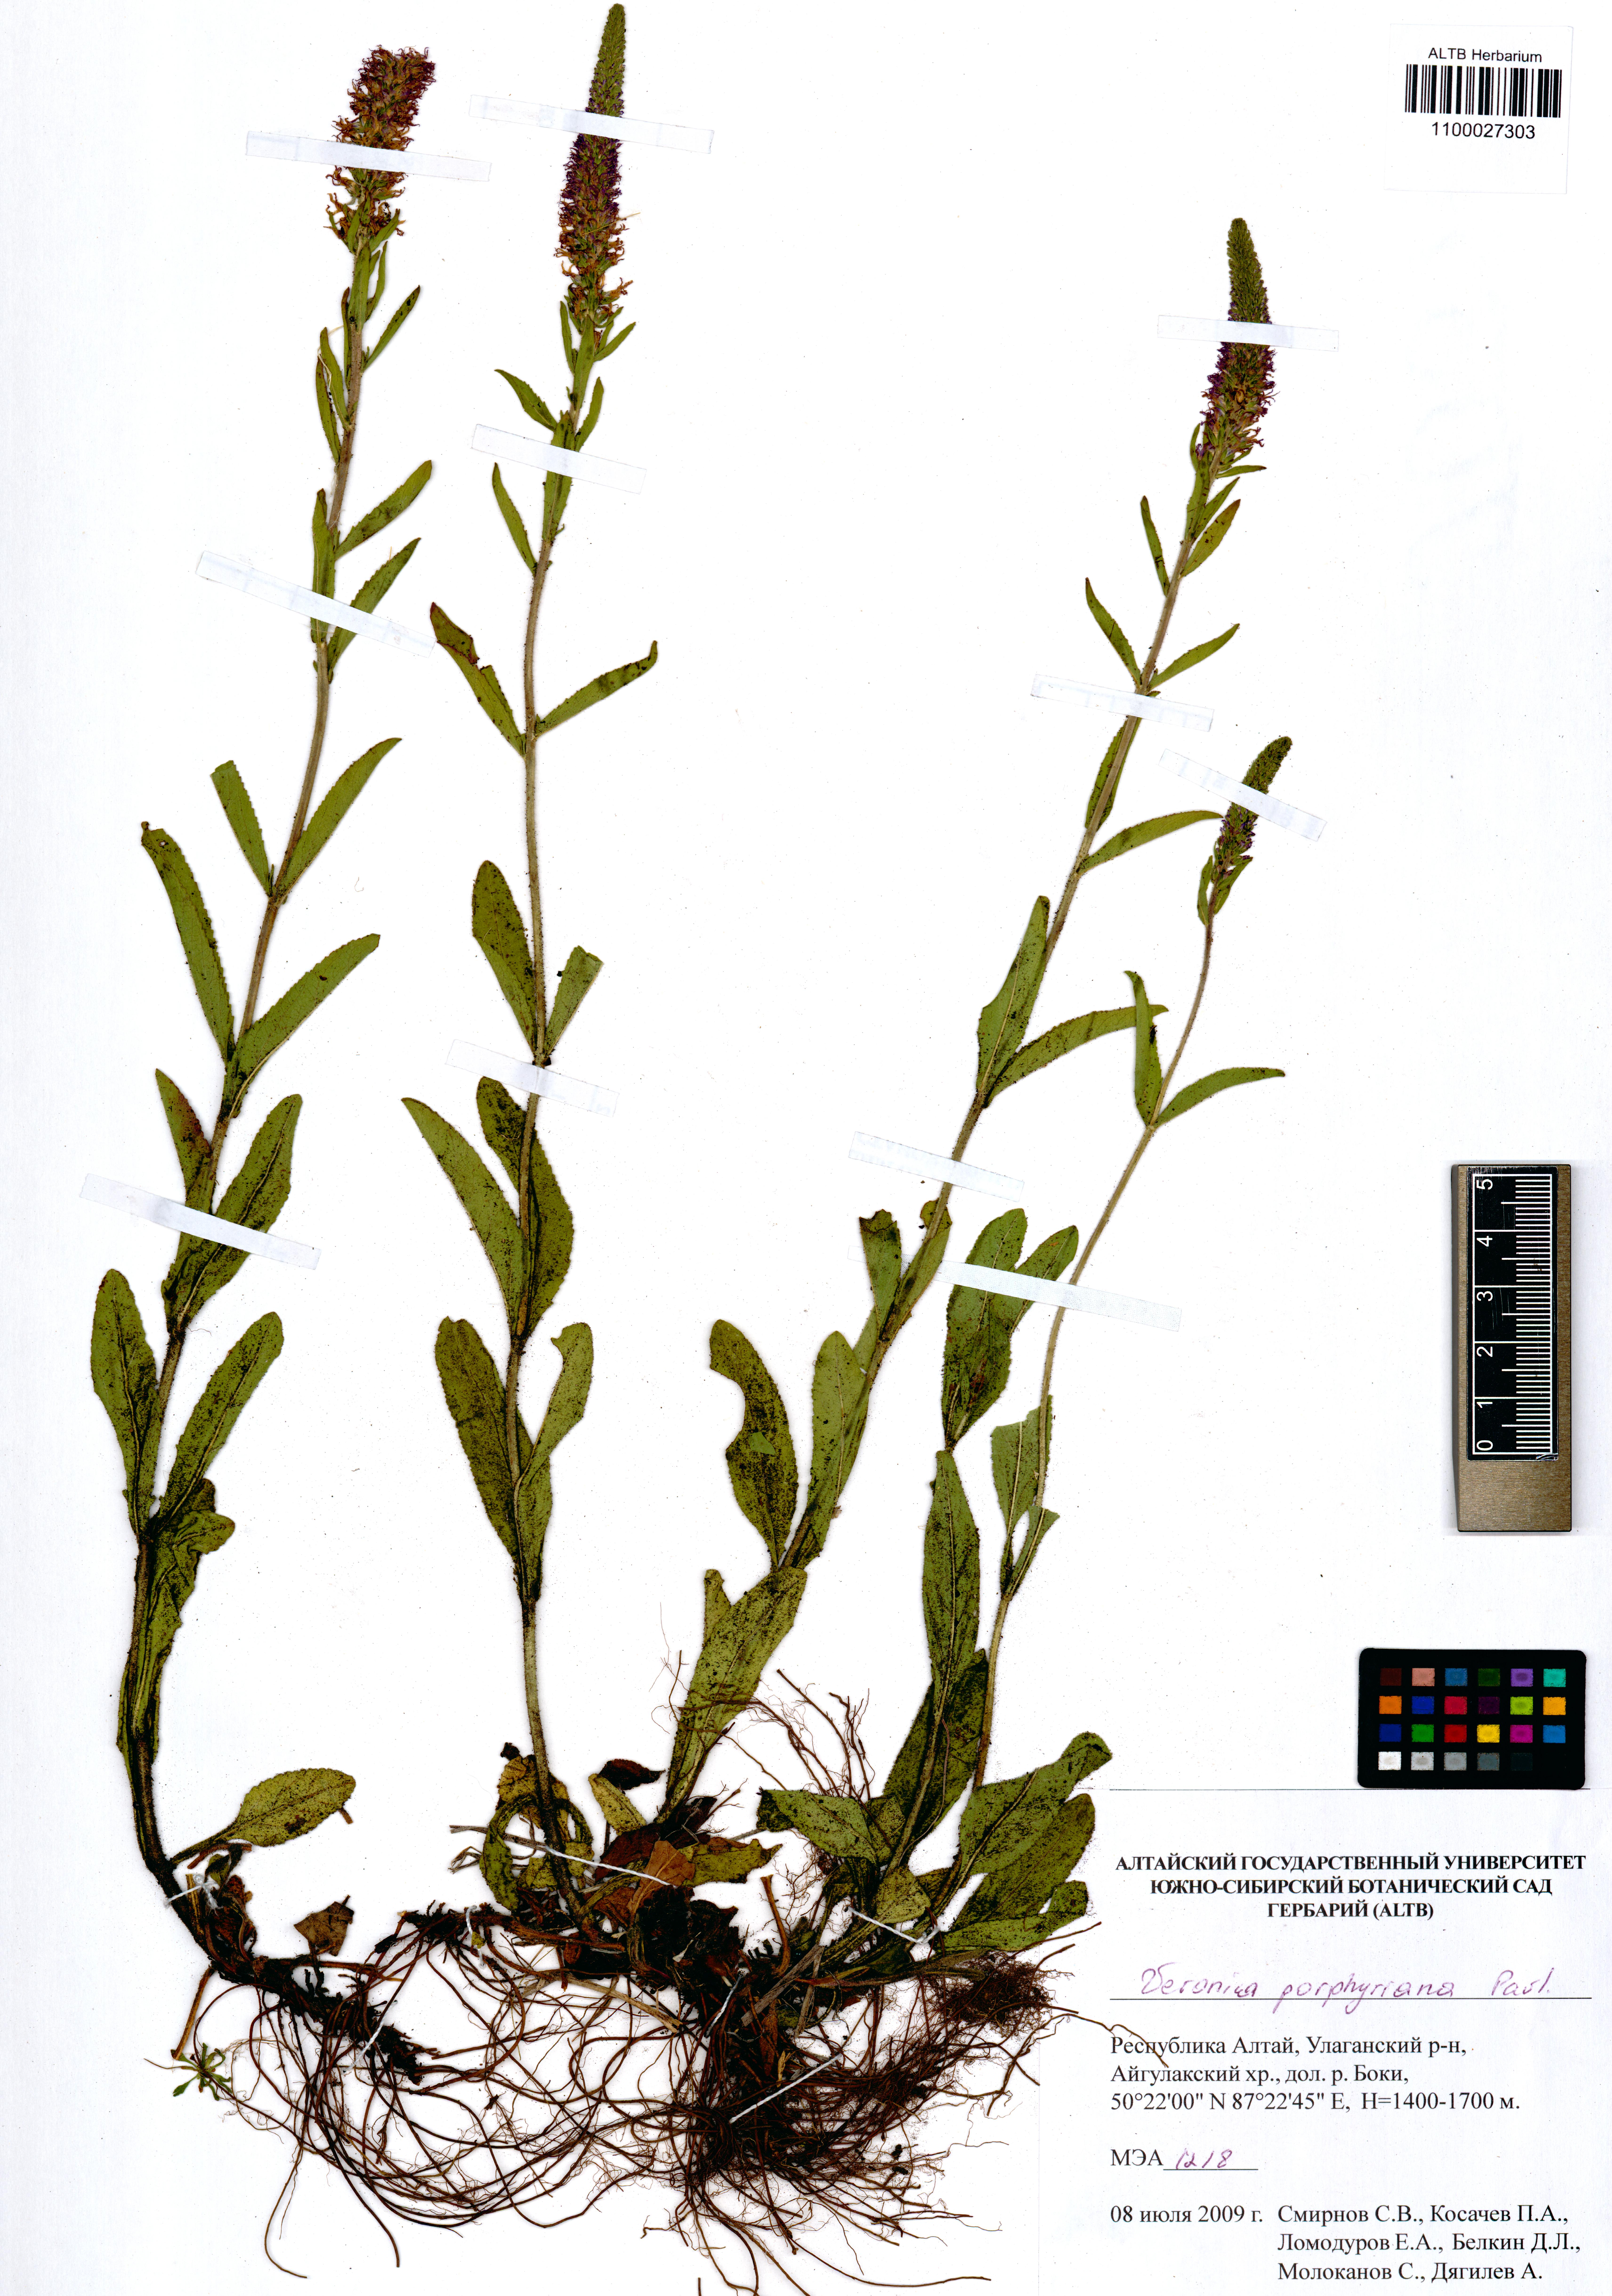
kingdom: Plantae
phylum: Tracheophyta
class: Magnoliopsida
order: Lamiales
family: Plantaginaceae
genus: Veronica
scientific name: Veronica porphyriana
